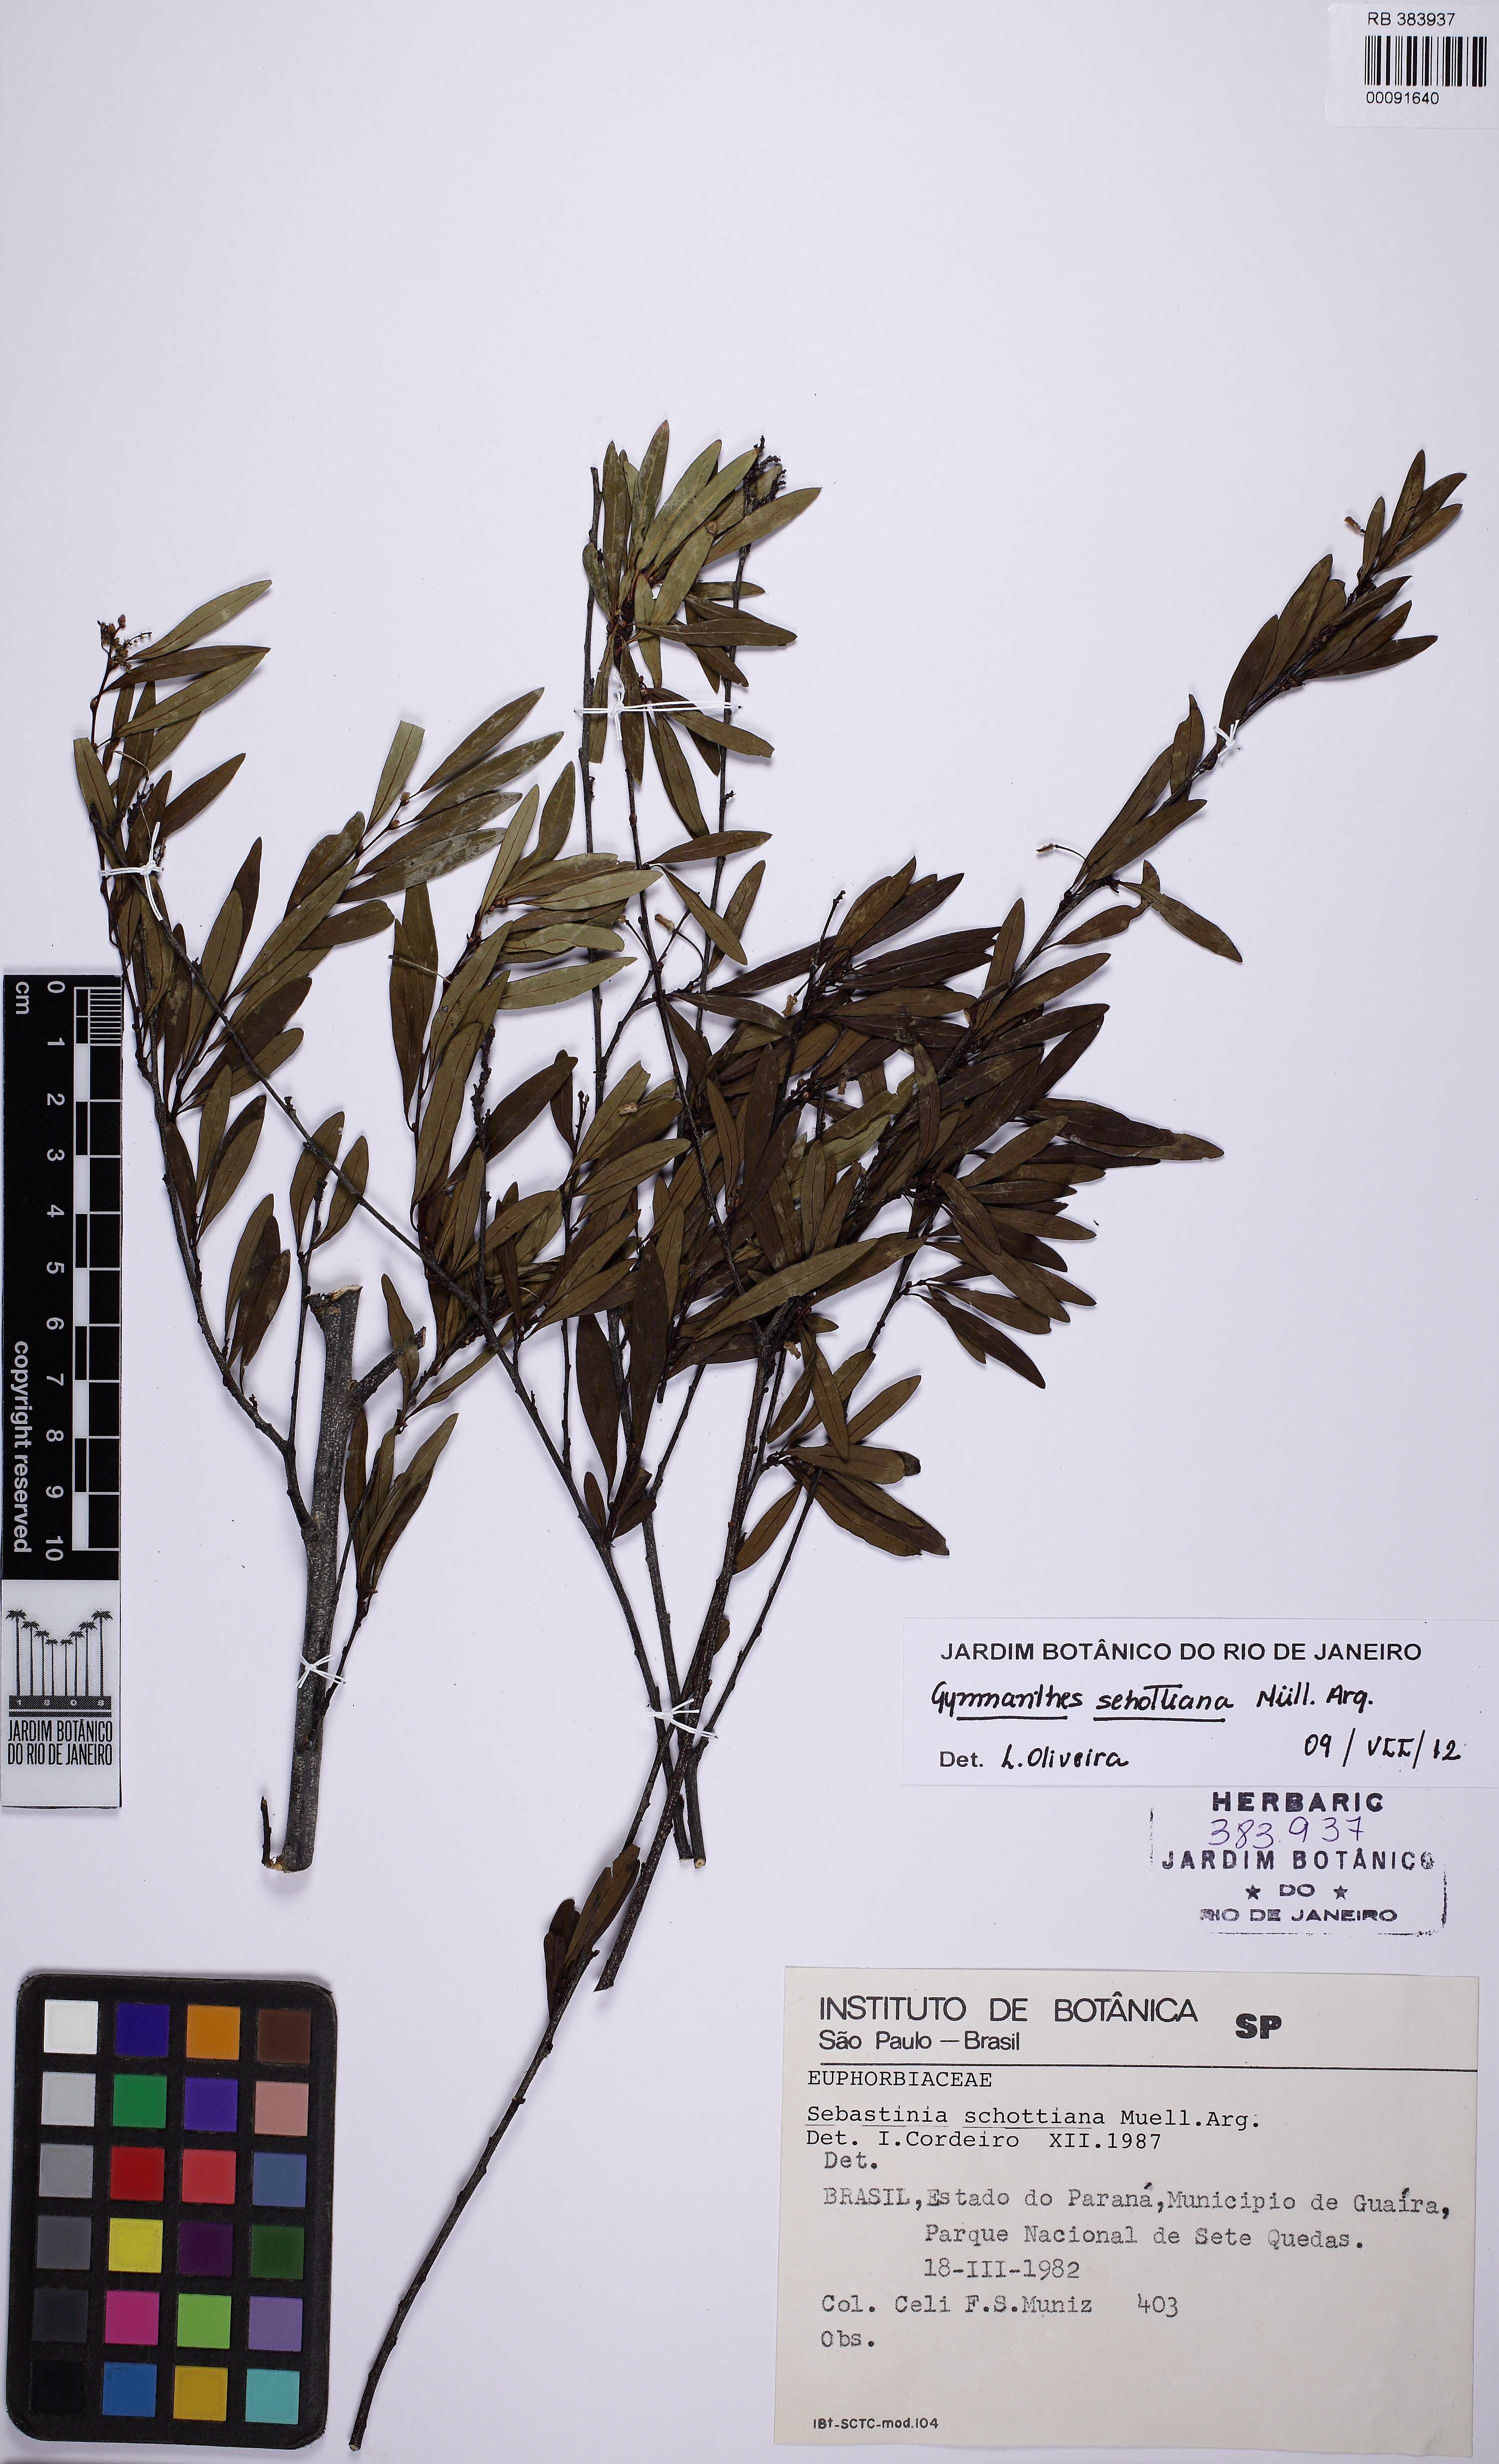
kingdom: Plantae
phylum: Tracheophyta
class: Magnoliopsida
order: Malpighiales
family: Euphorbiaceae
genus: Sebastiania
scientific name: Sebastiania schottiana
